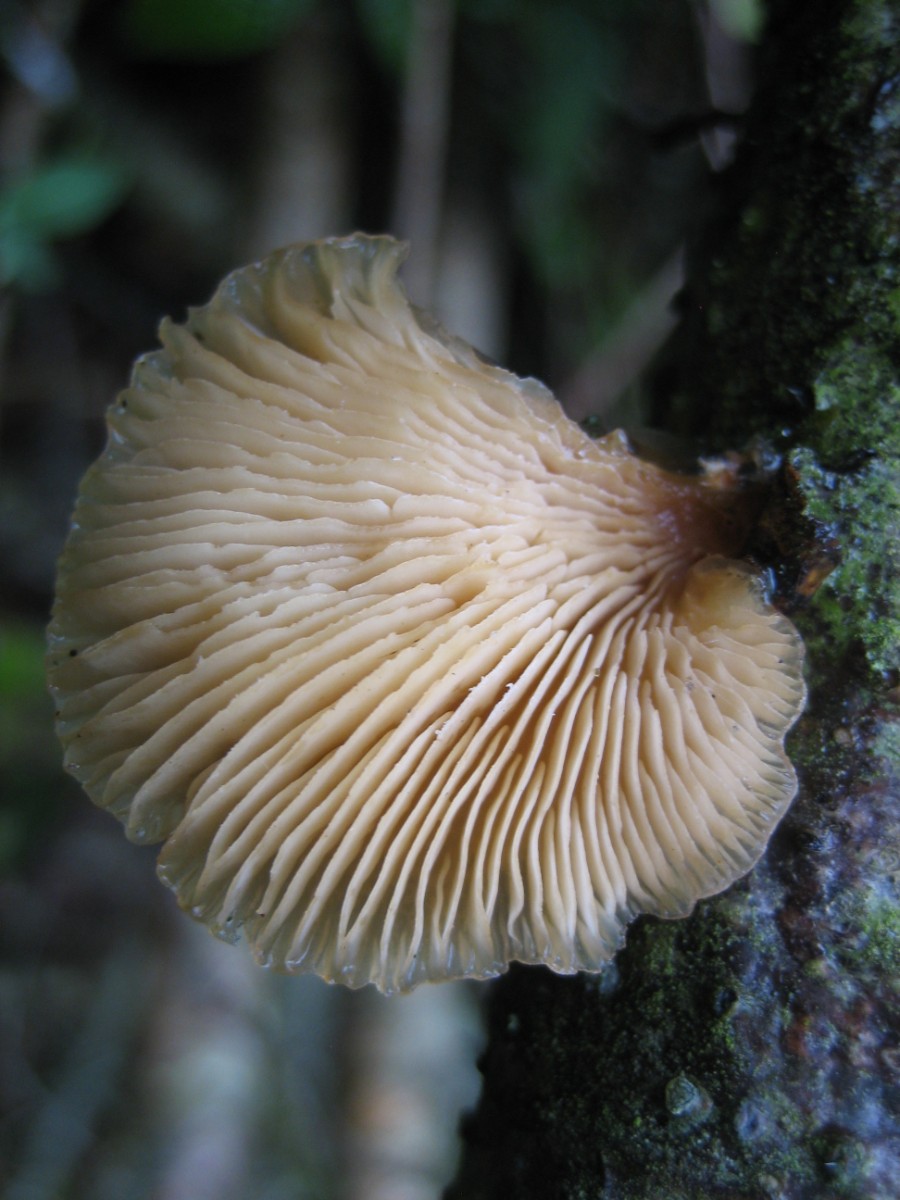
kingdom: Fungi
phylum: Basidiomycota
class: Agaricomycetes
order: Agaricales
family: Pleurotaceae
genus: Hohenbuehelia
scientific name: Hohenbuehelia
